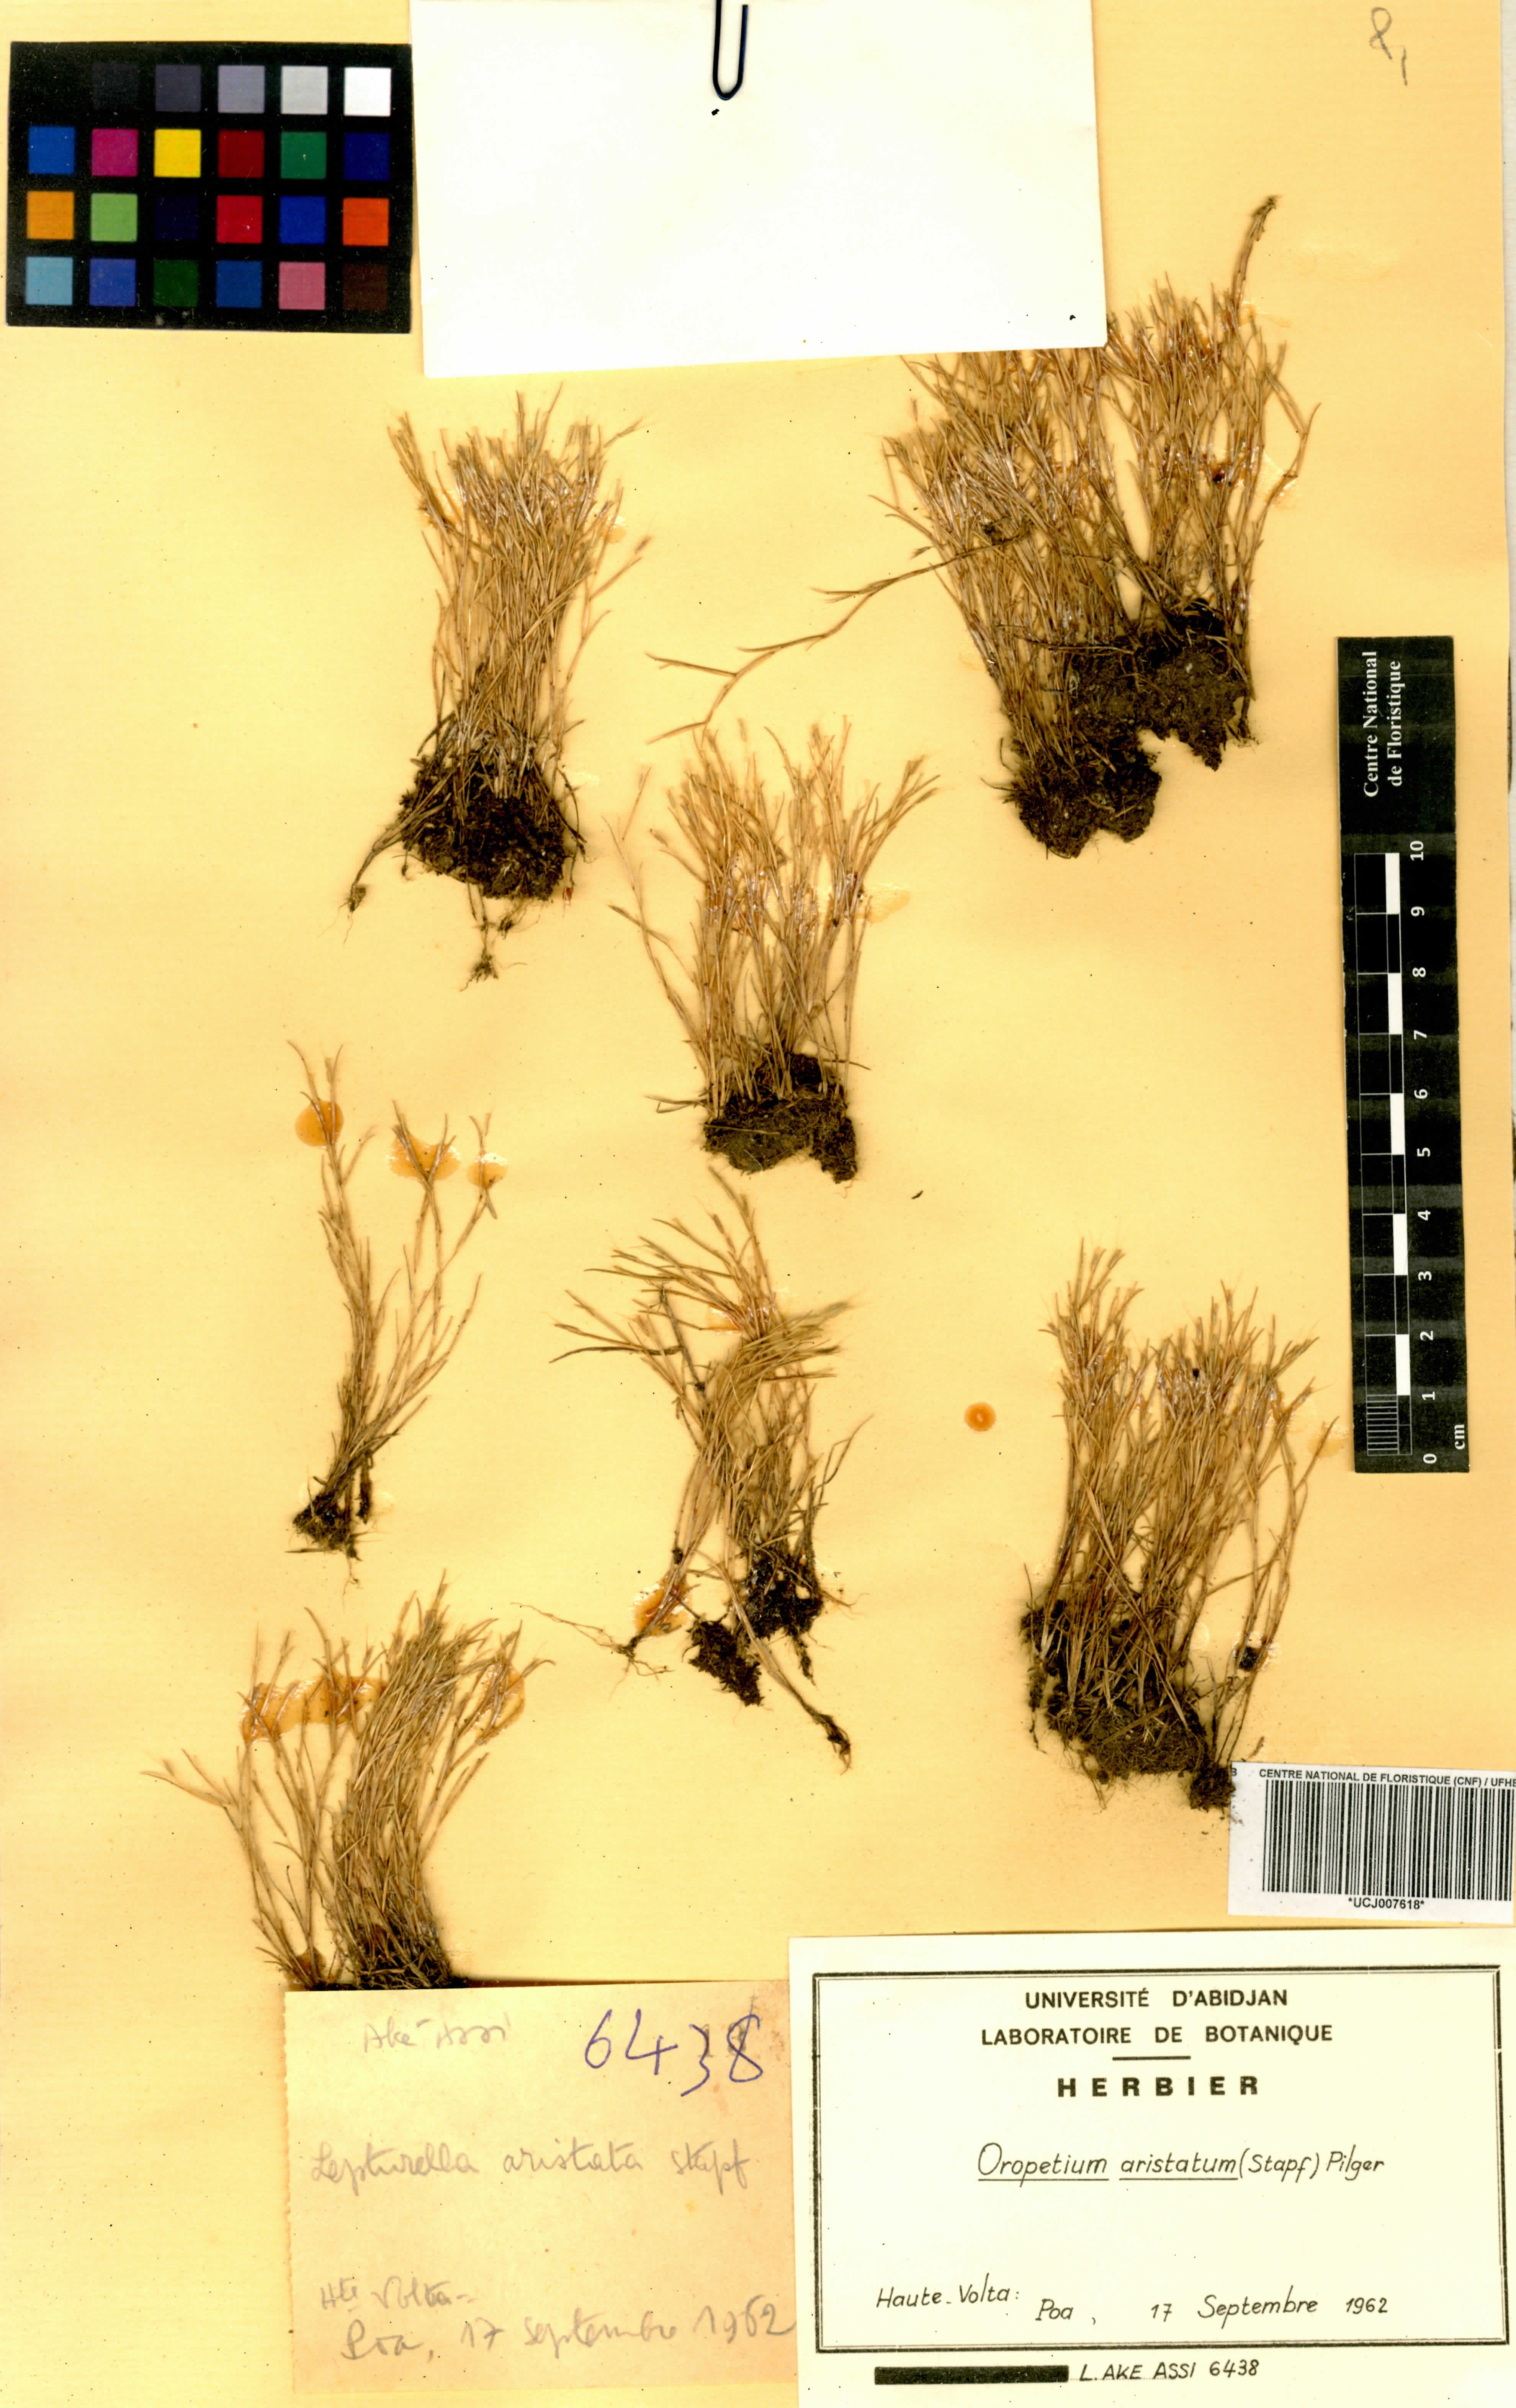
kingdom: Plantae
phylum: Tracheophyta
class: Liliopsida
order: Poales
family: Poaceae
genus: Oropetium
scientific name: Oropetium aristatum
